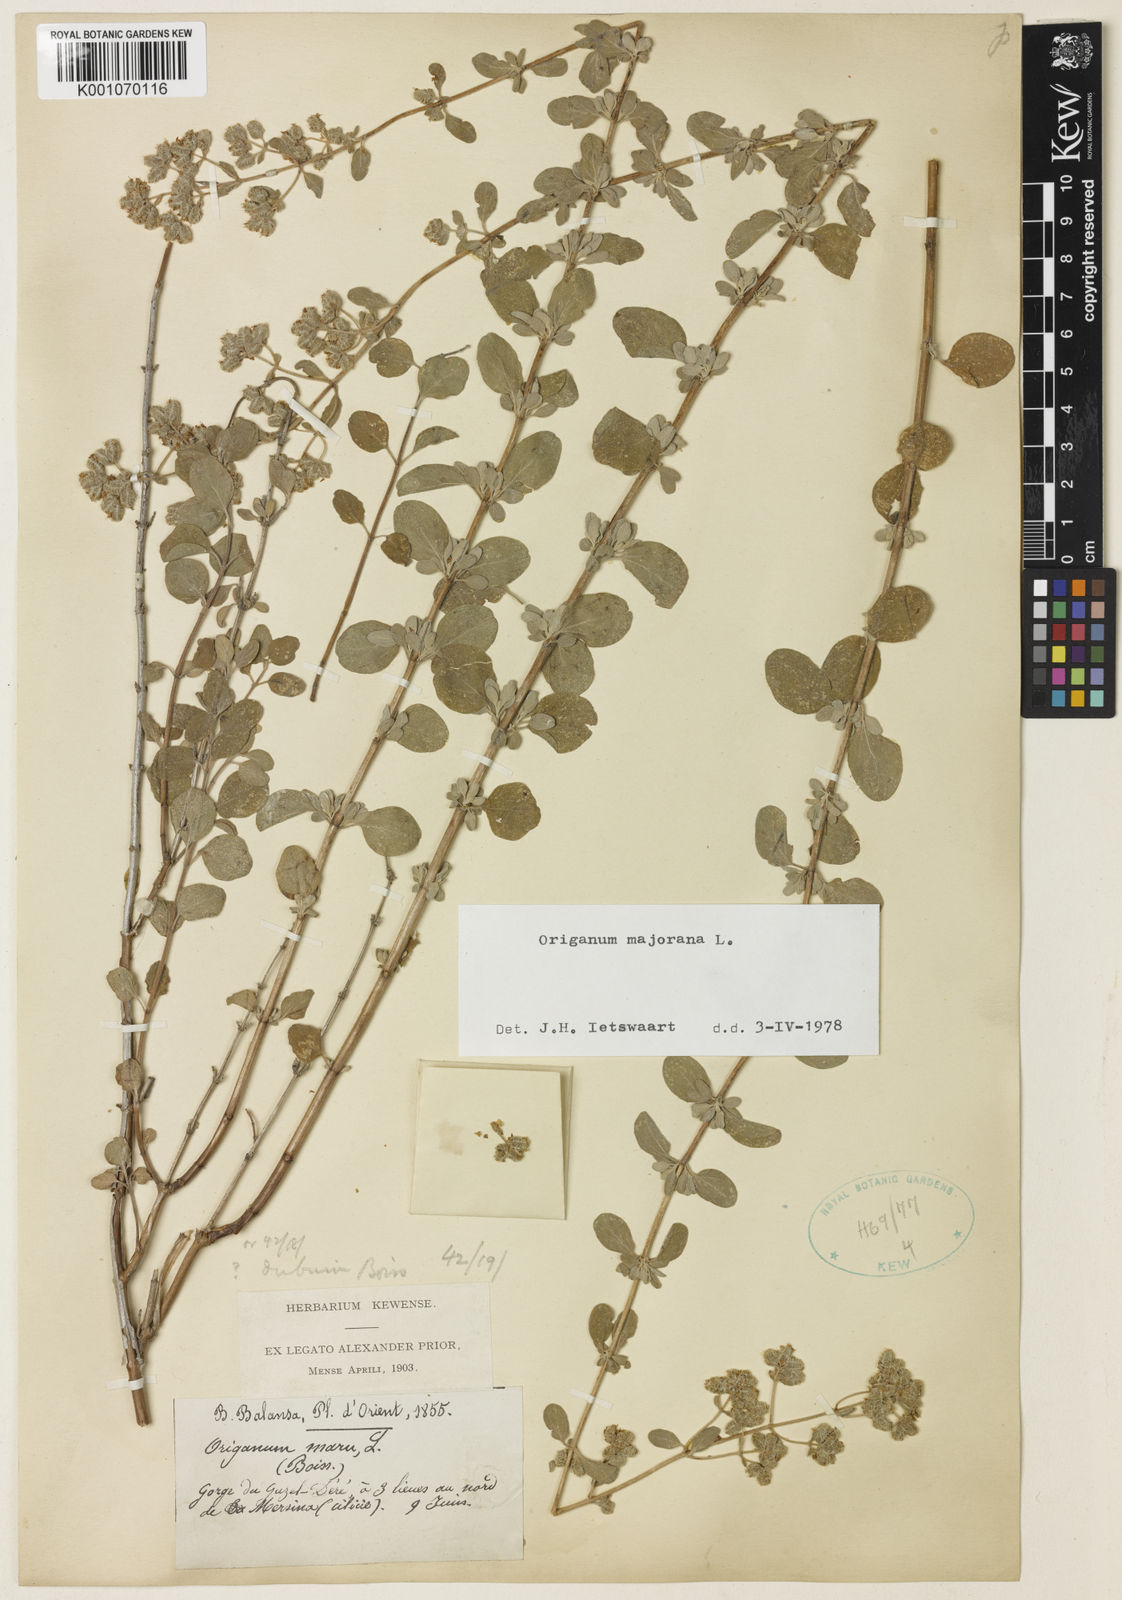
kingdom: Plantae
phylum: Tracheophyta
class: Magnoliopsida
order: Lamiales
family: Lamiaceae
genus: Origanum
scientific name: Origanum majorana
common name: Sweet marjoram
